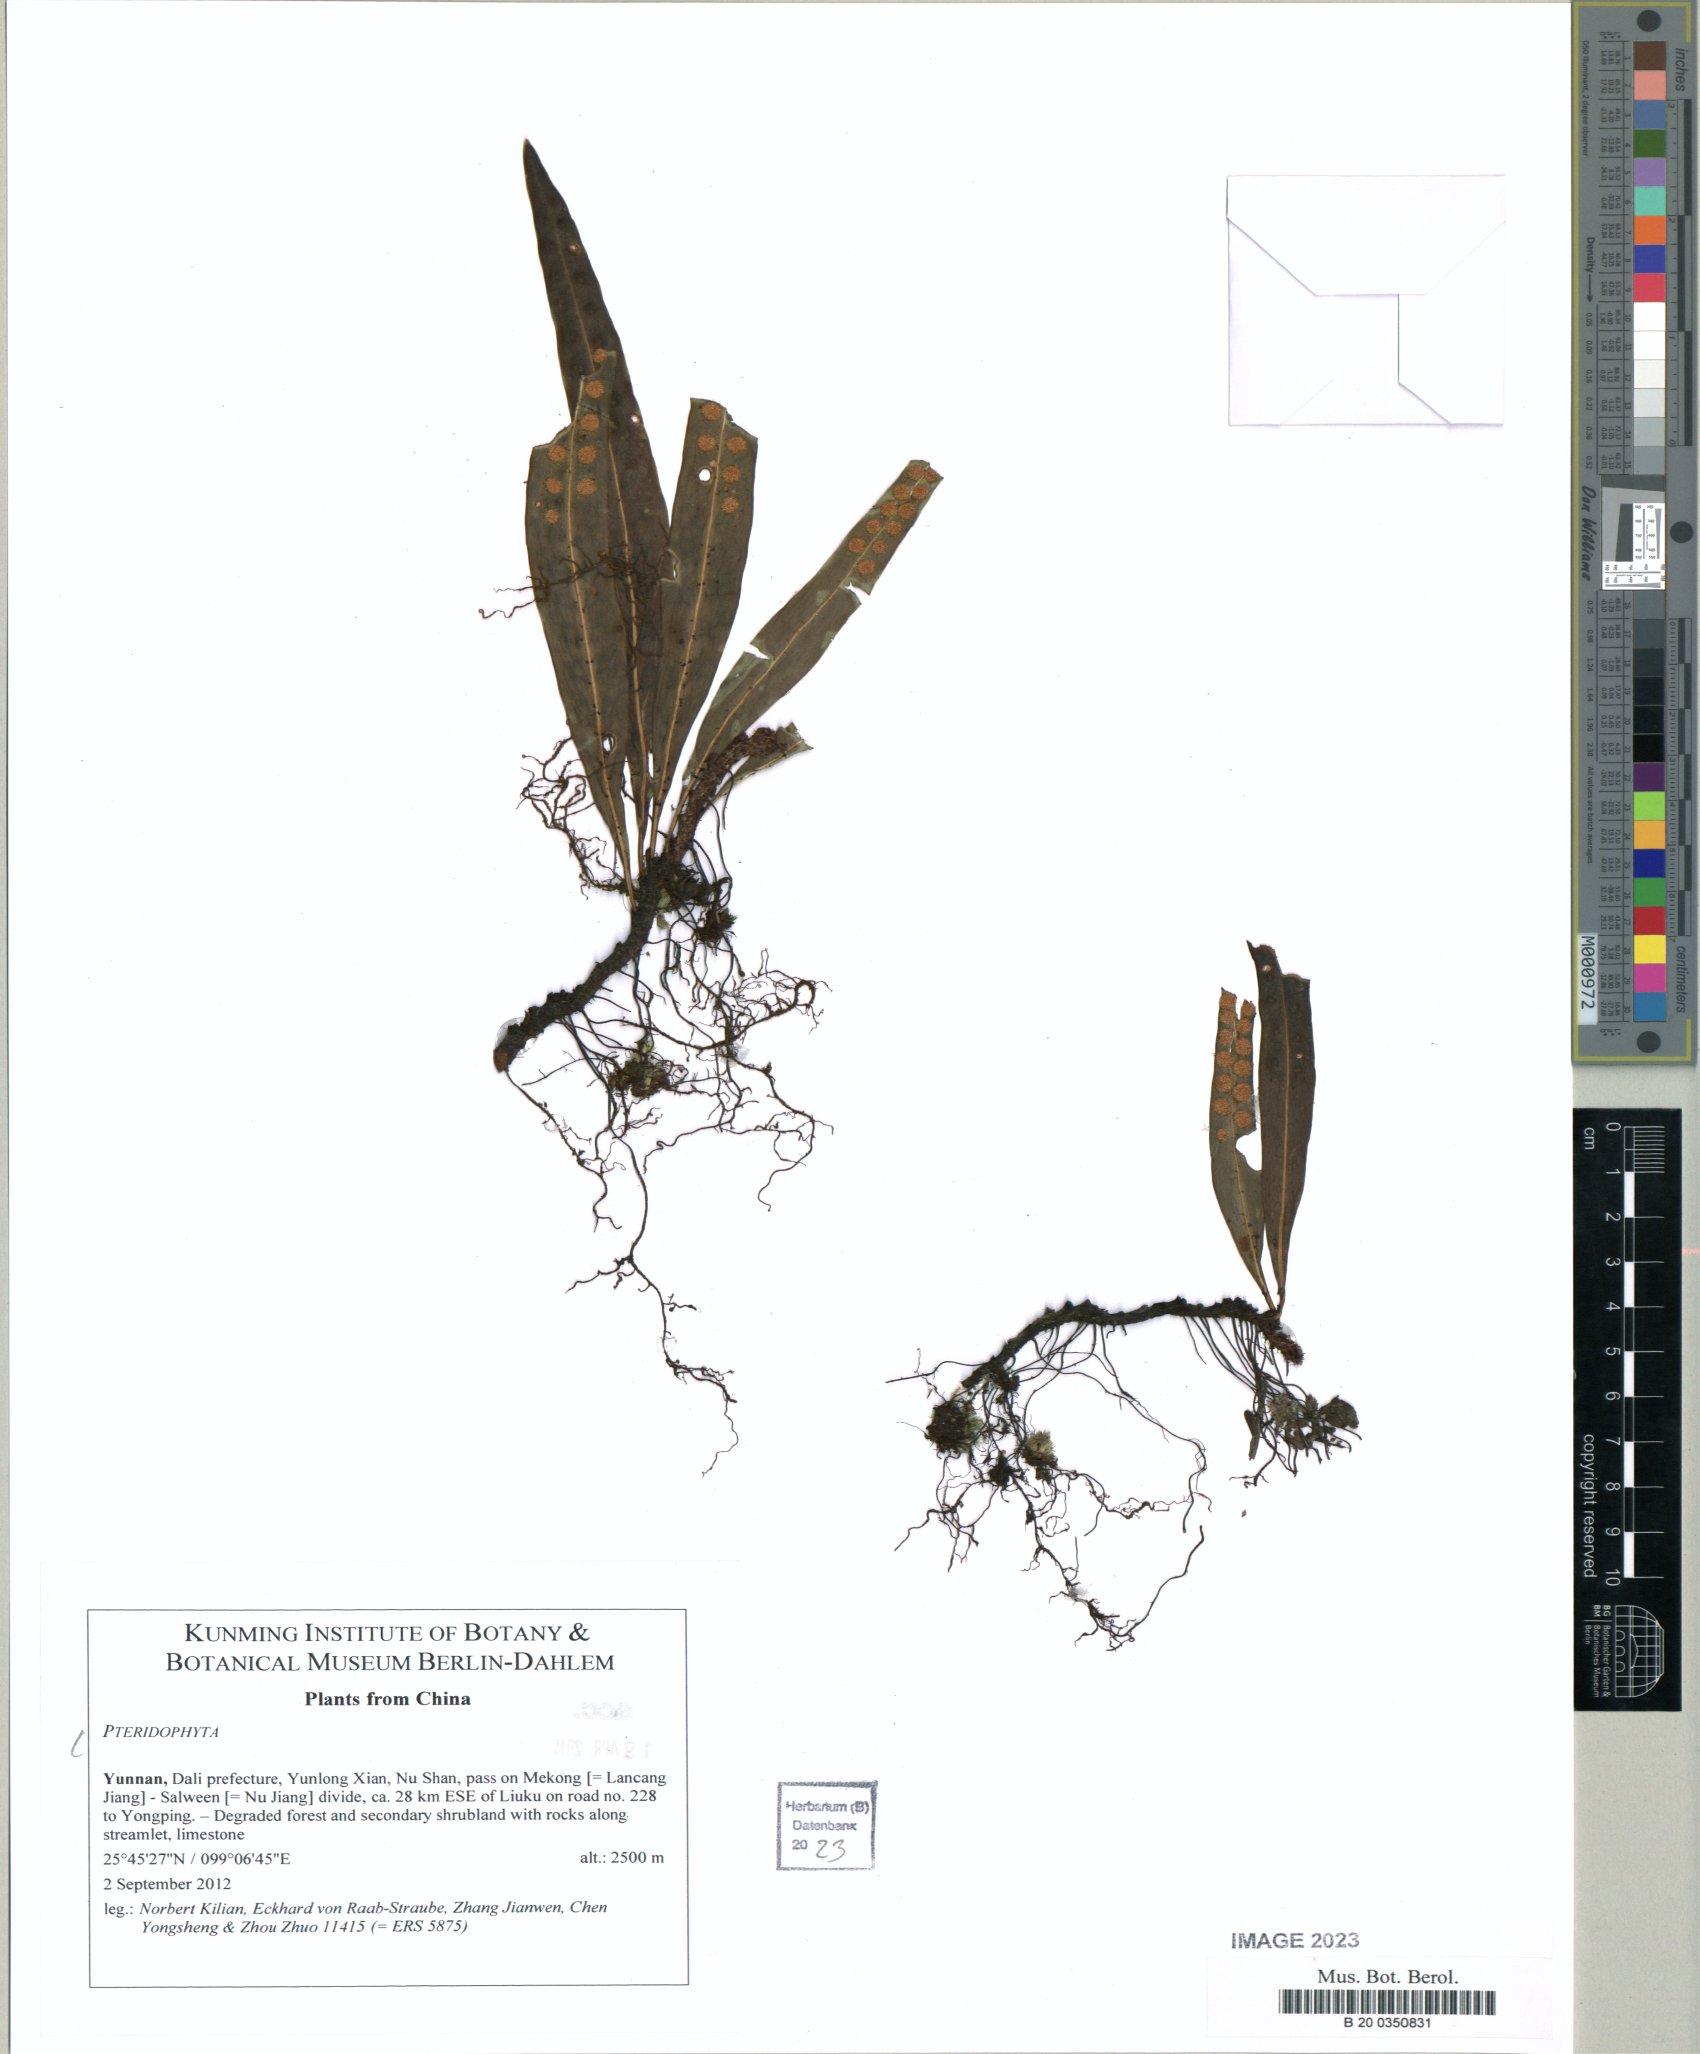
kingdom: Plantae
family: Pteridophyta
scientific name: Pteridophyta
